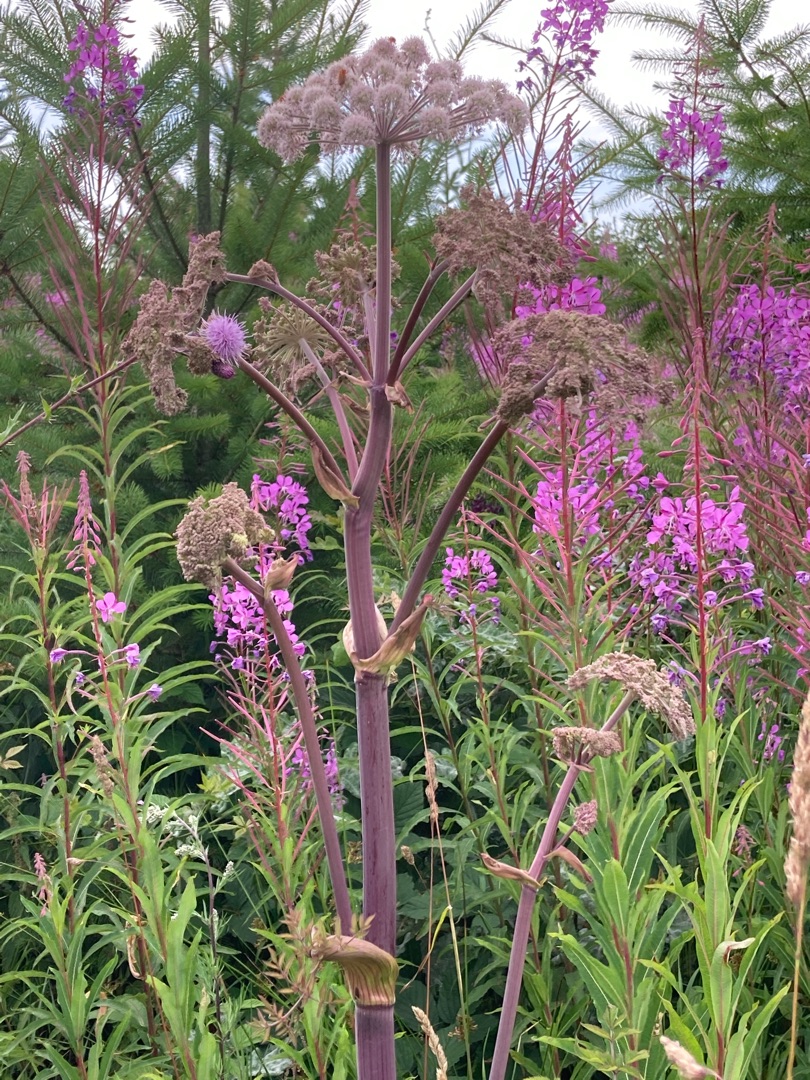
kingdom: Plantae
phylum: Tracheophyta
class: Magnoliopsida
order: Apiales
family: Apiaceae
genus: Angelica
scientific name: Angelica sylvestris
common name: Angelik
